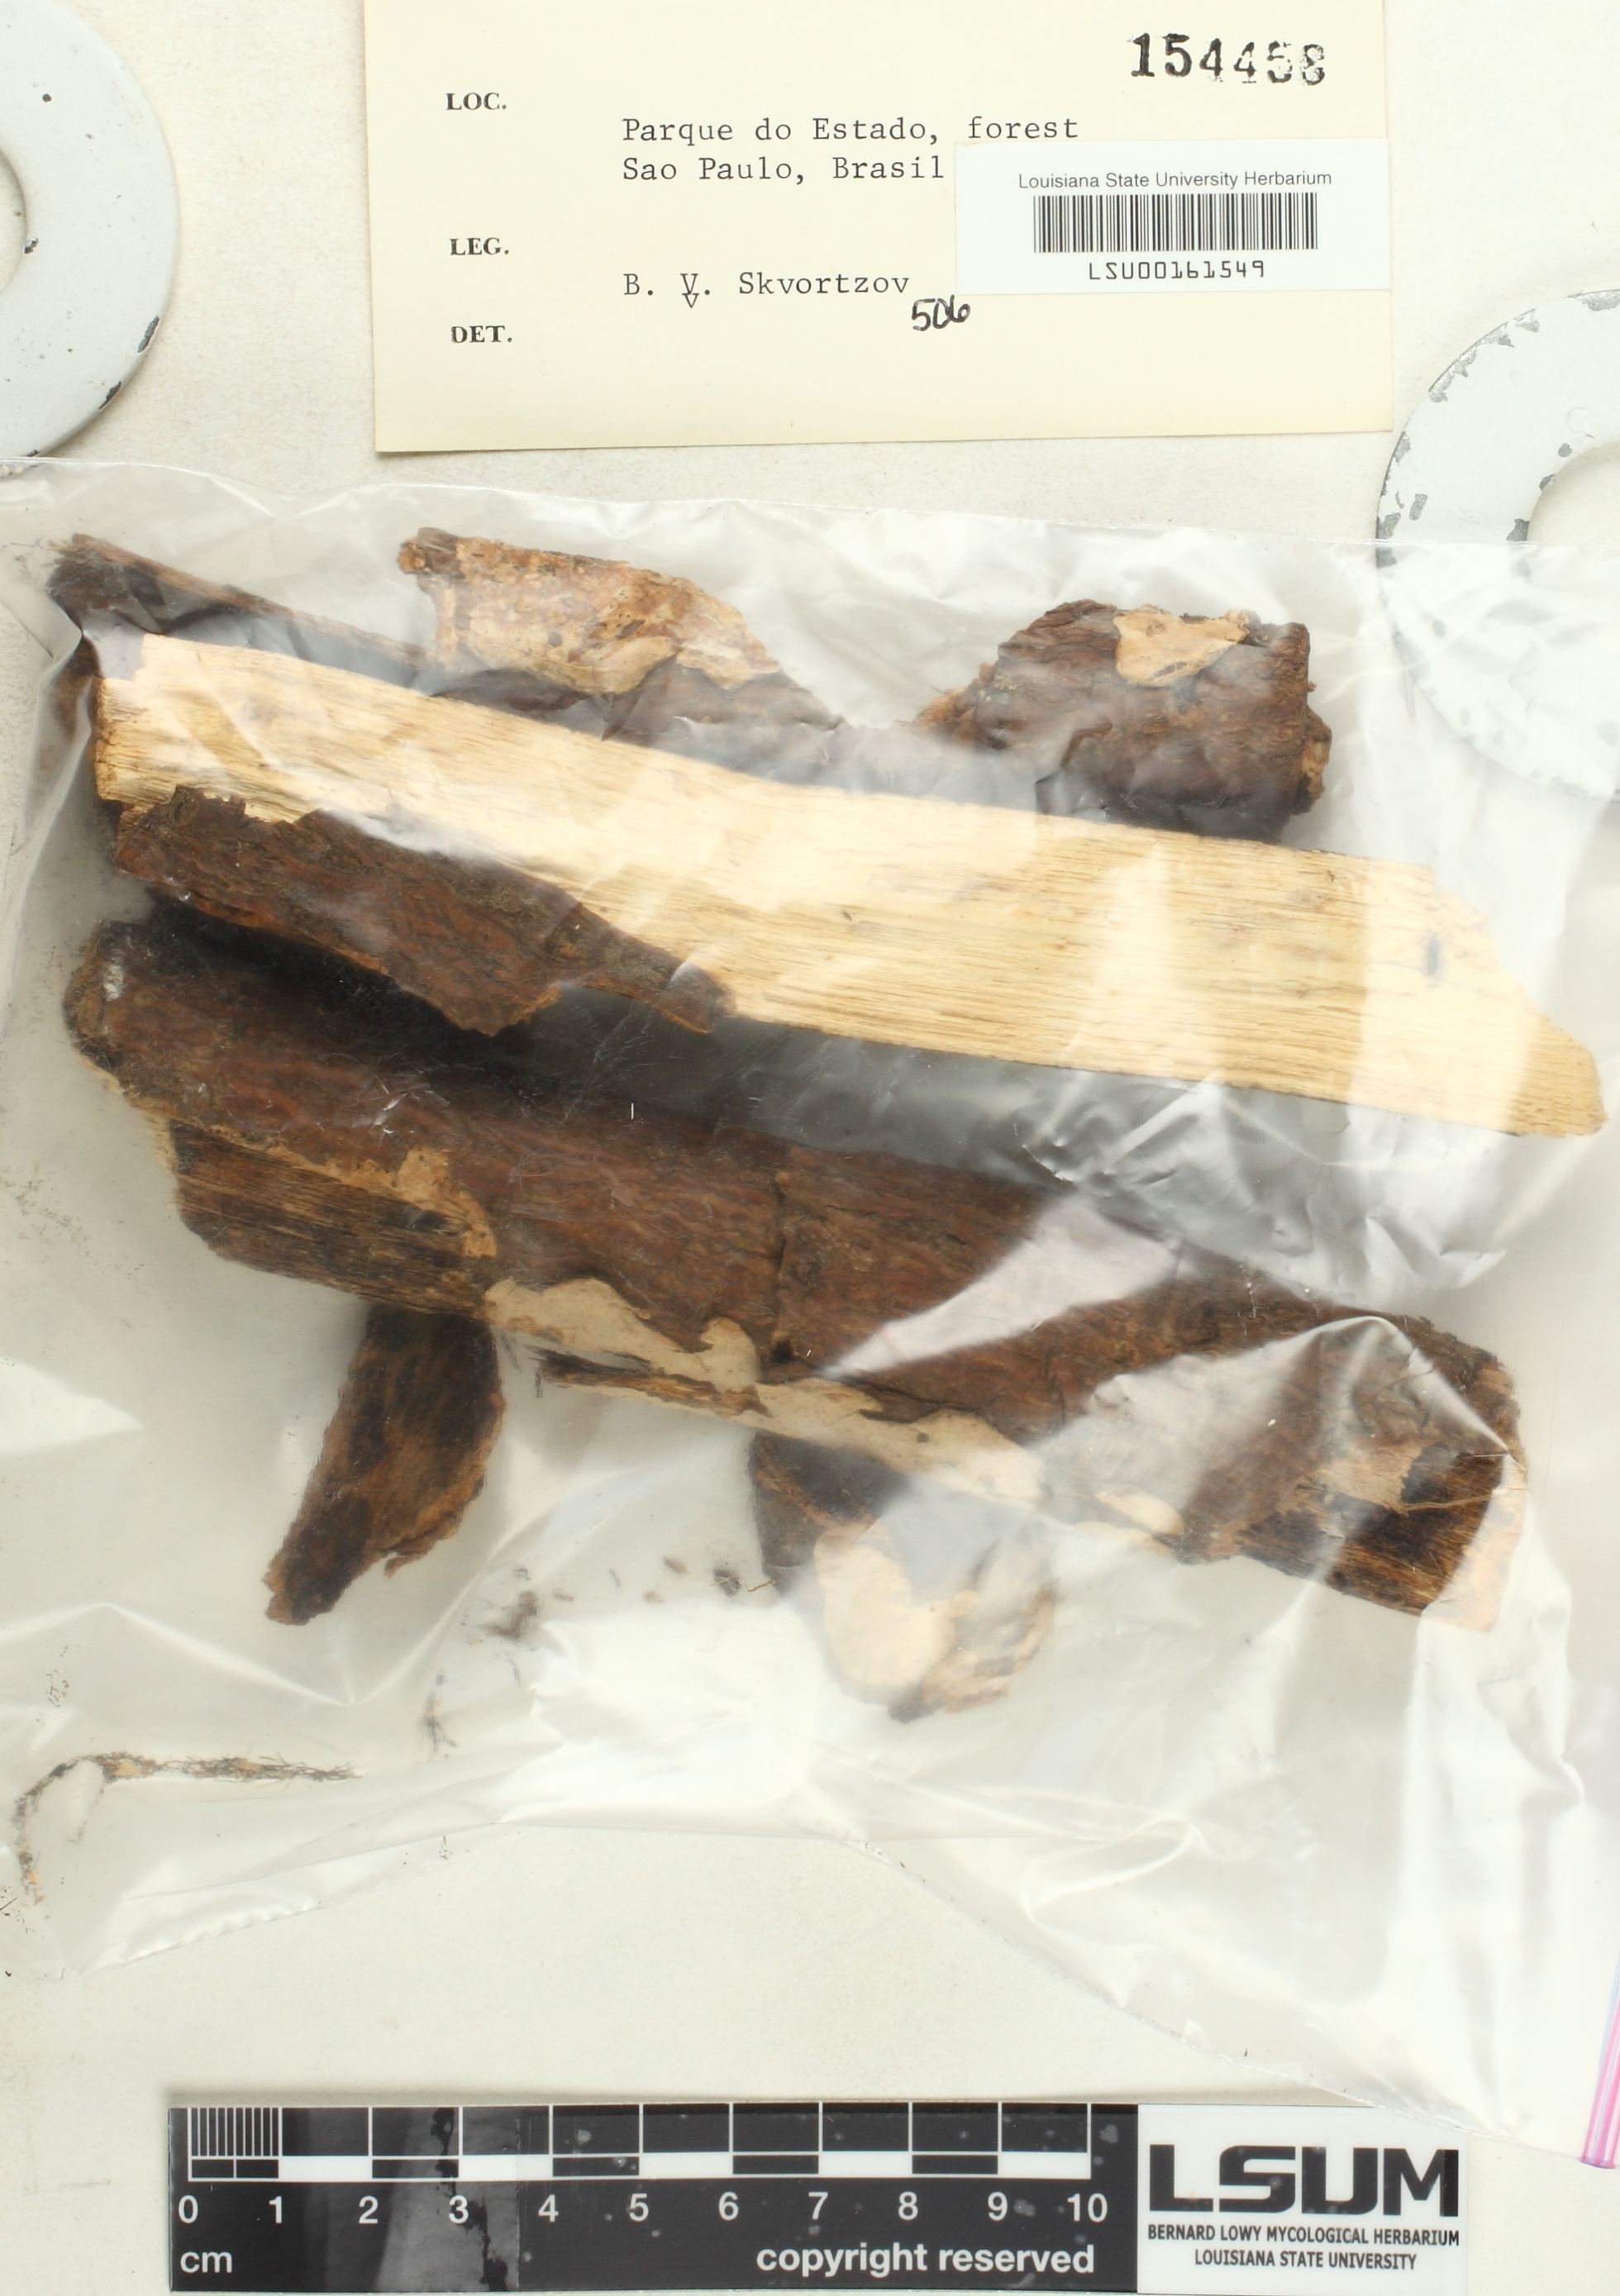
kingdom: Fungi
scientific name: Fungi
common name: Fungi
